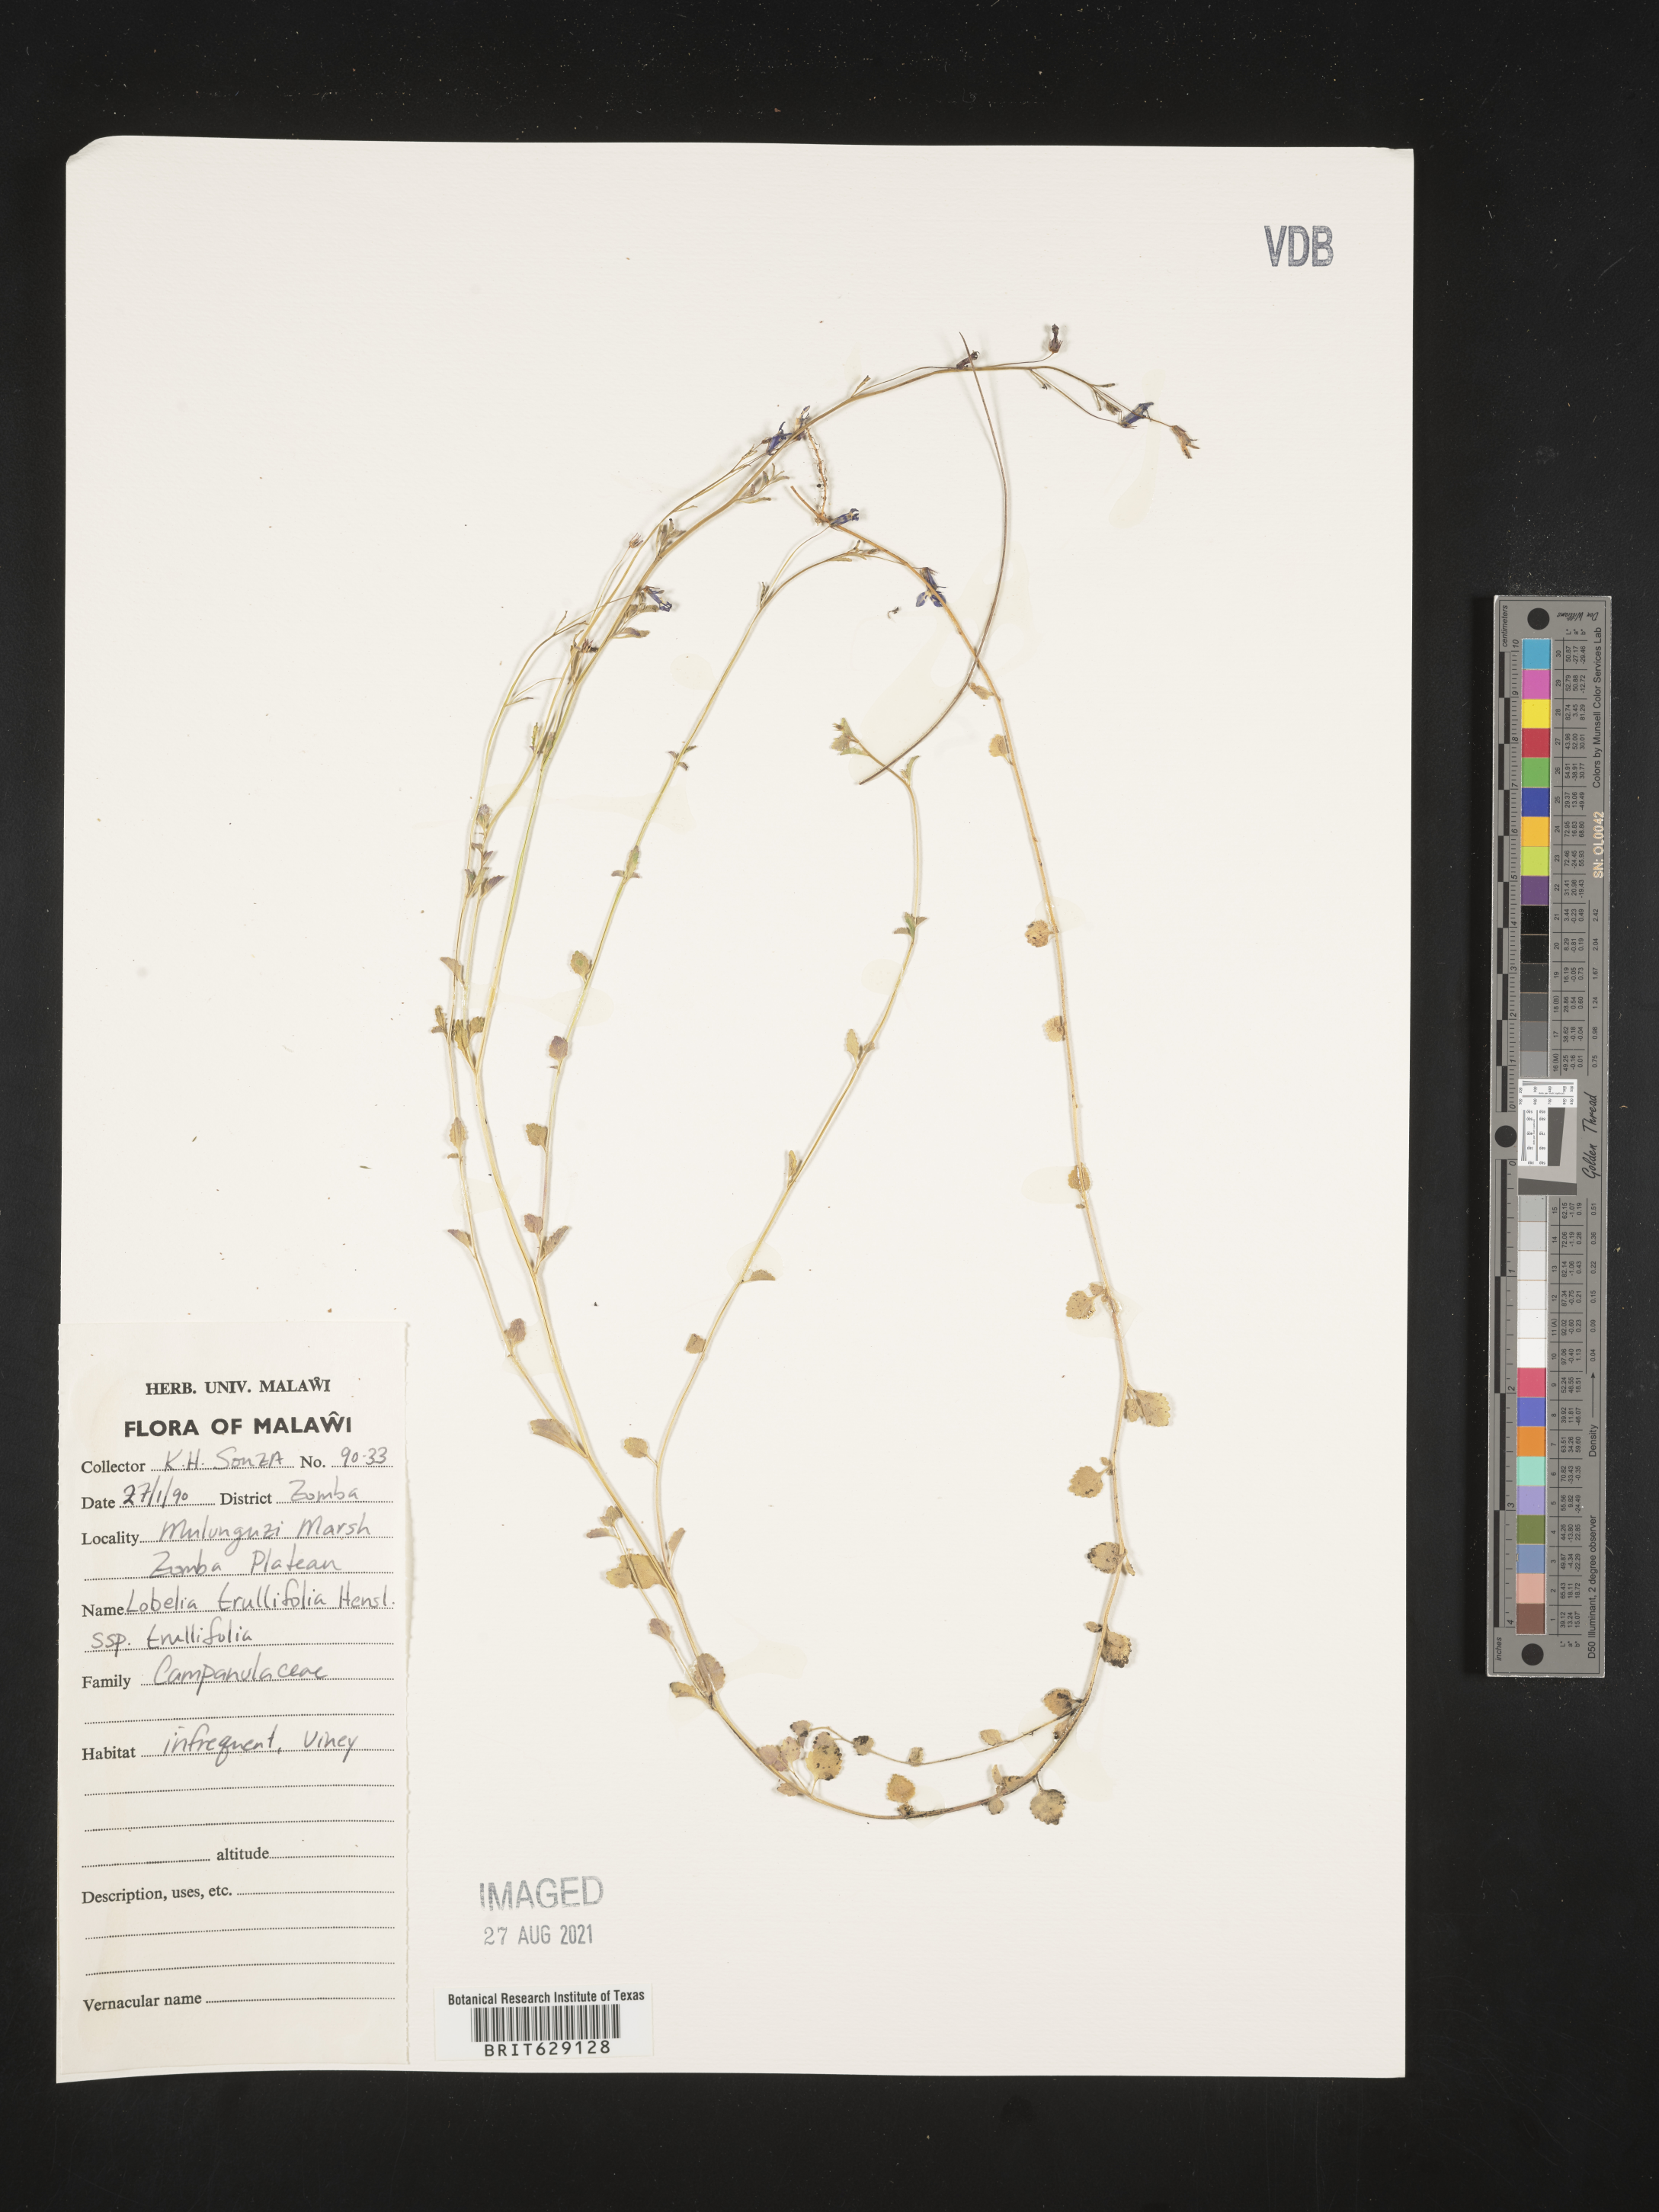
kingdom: Plantae
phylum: Tracheophyta
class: Magnoliopsida
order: Asterales
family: Campanulaceae
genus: Lobelia
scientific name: Lobelia trullifolia
